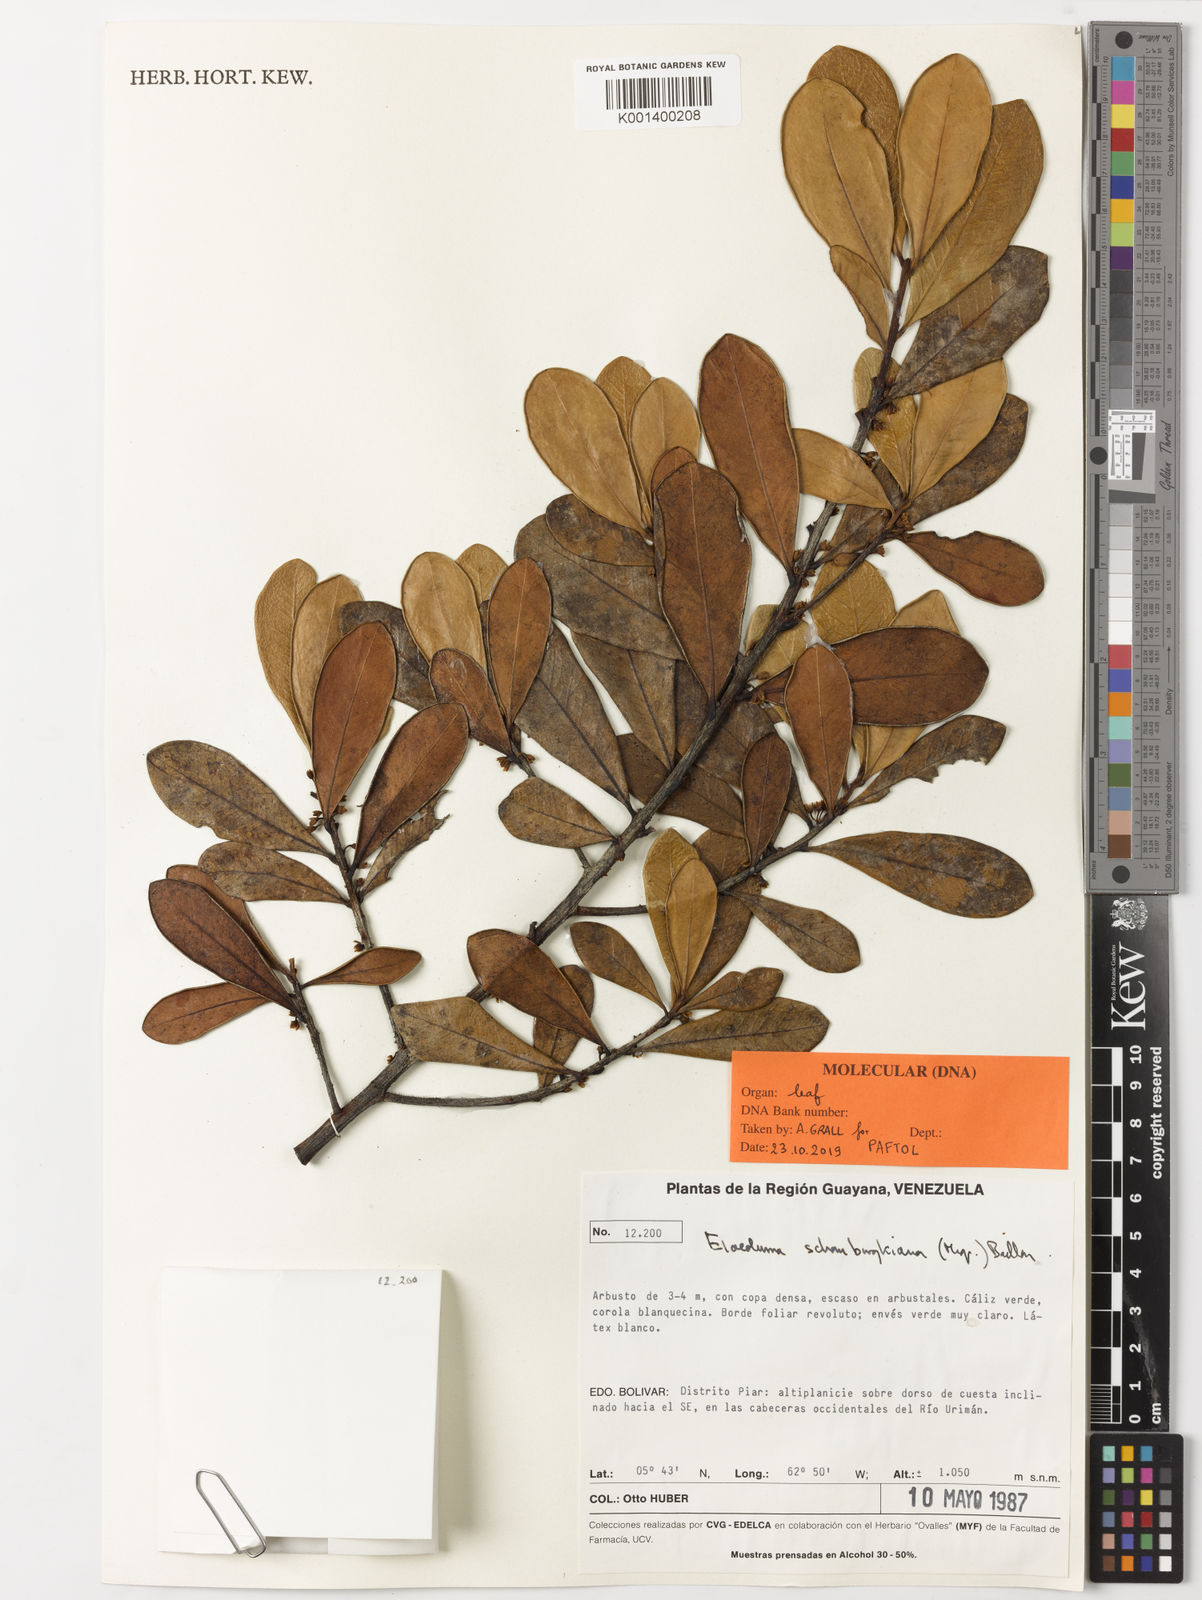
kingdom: Plantae
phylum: Tracheophyta
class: Magnoliopsida
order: Ericales
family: Sapotaceae
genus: Elaeoluma
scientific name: Elaeoluma schomburgkiana
